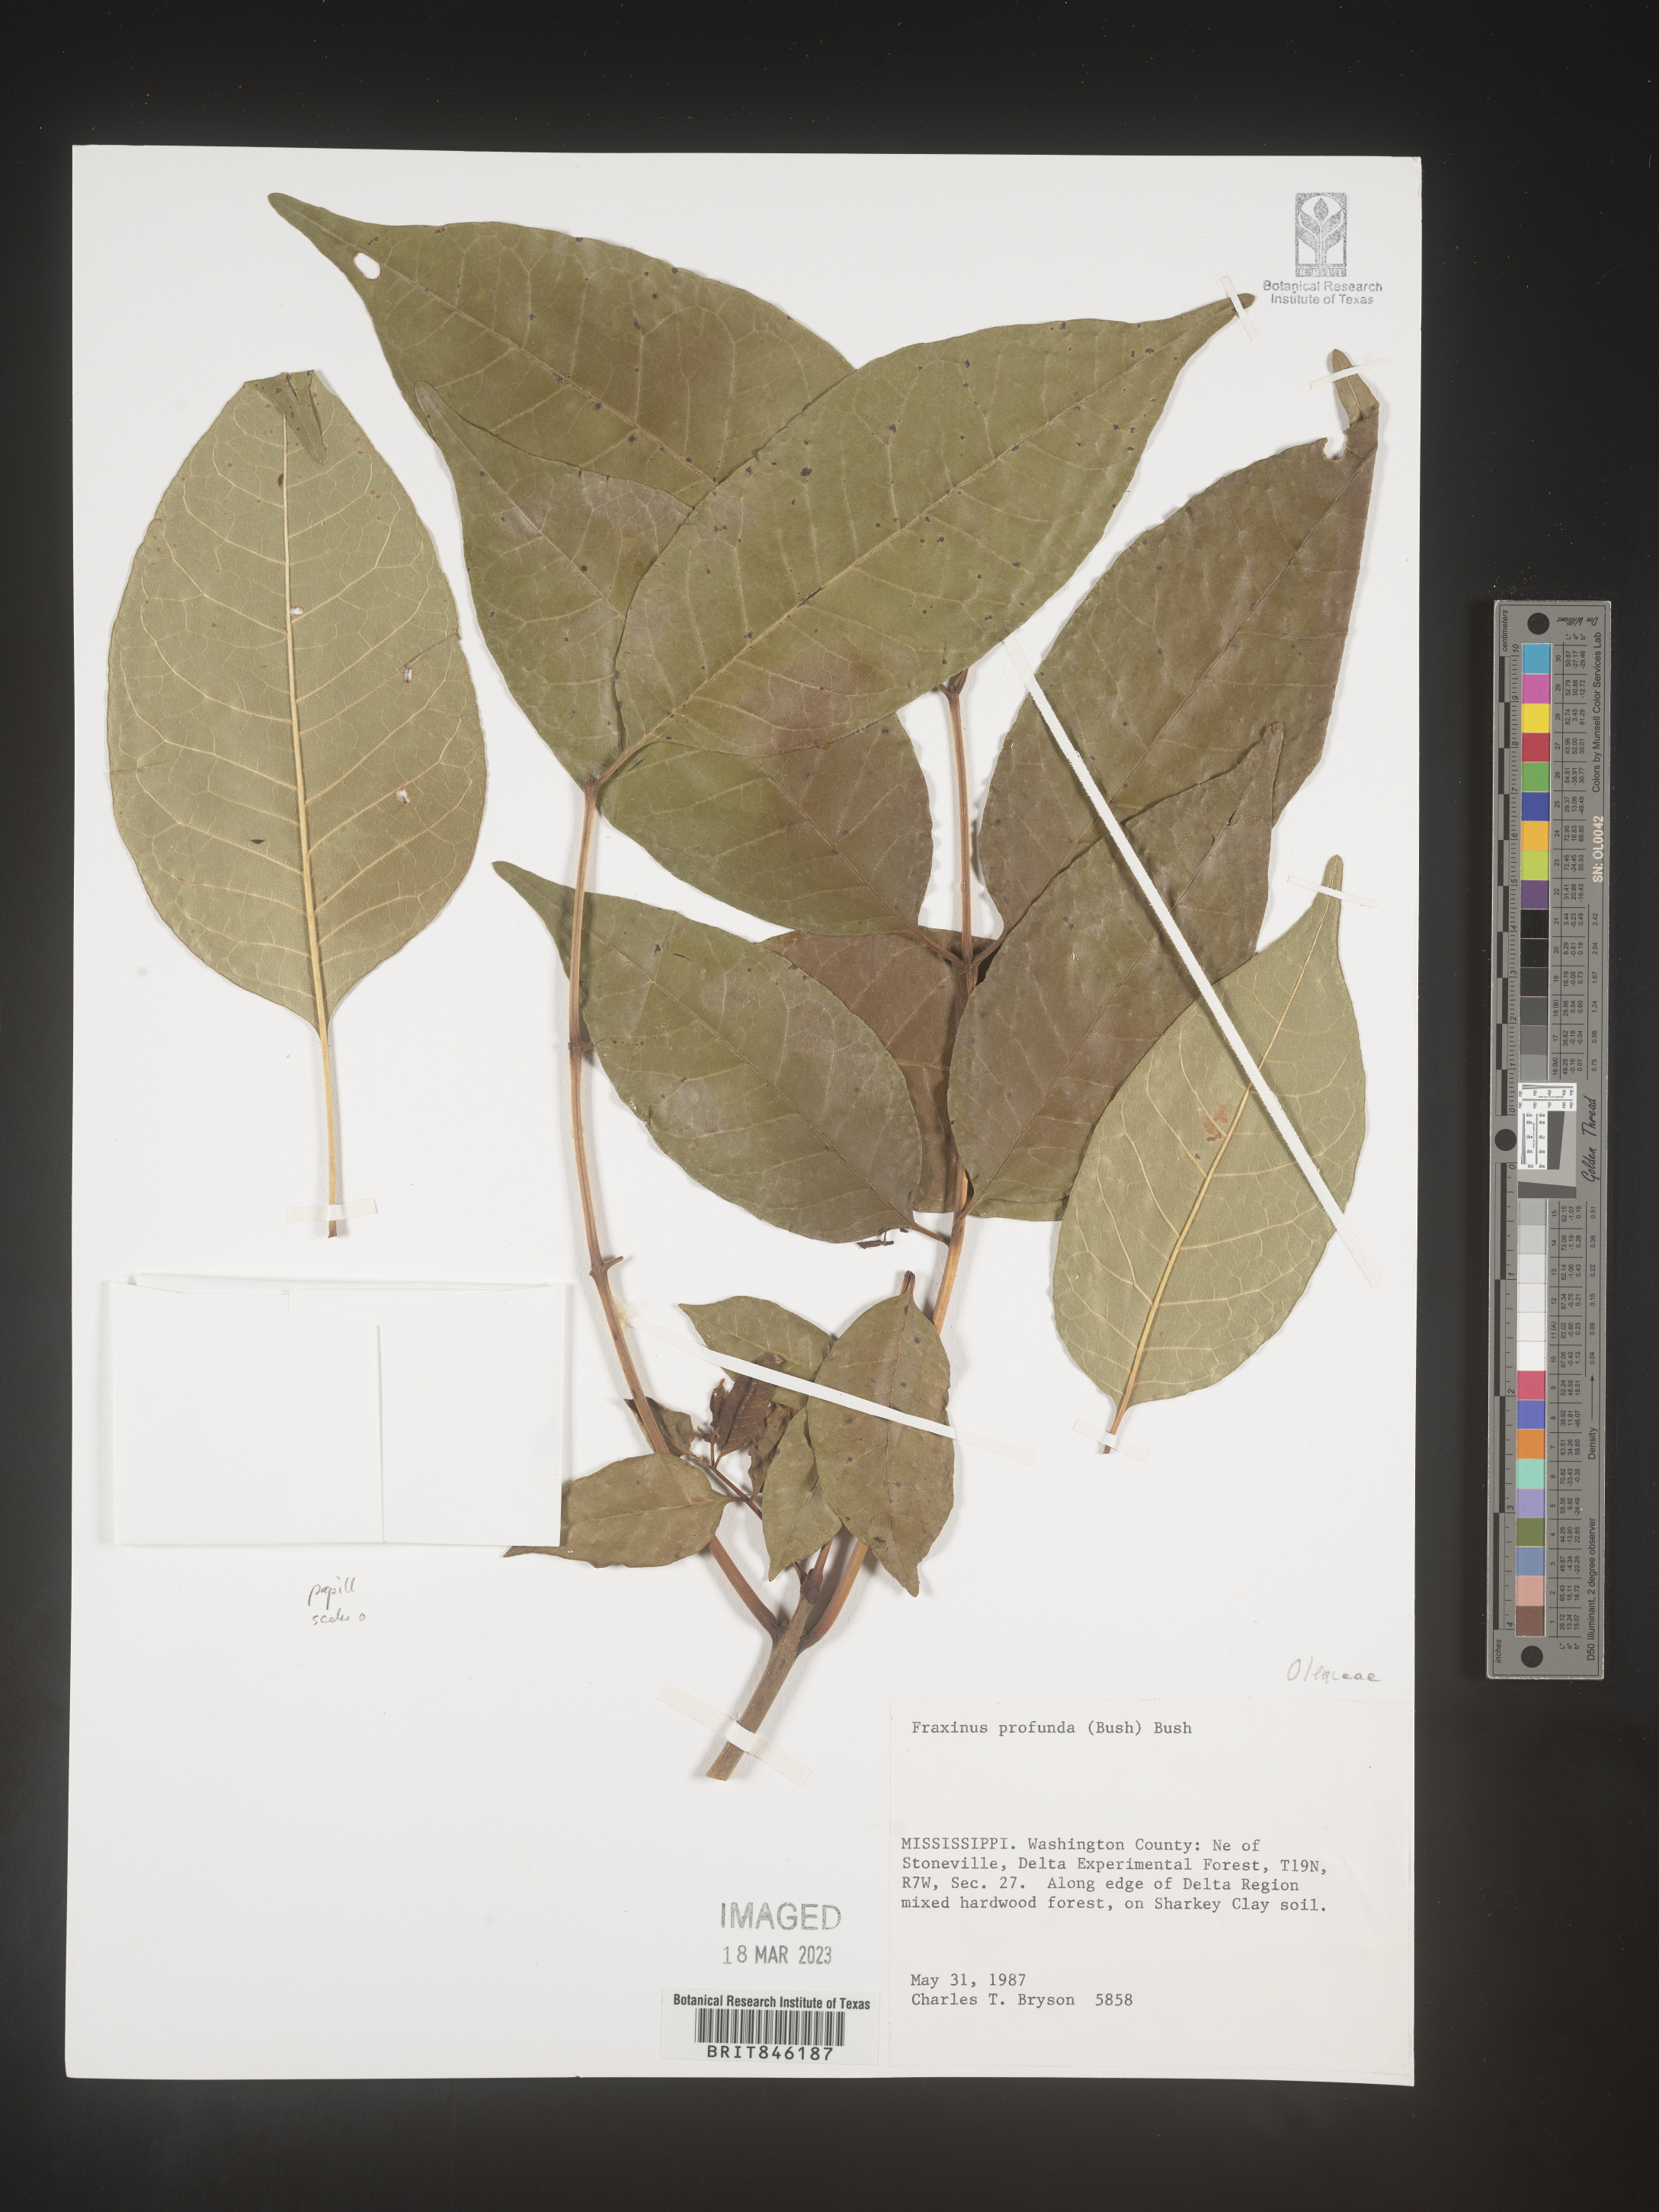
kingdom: Plantae
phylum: Tracheophyta
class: Magnoliopsida
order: Lamiales
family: Oleaceae
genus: Fraxinus
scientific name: Fraxinus profunda
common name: Pumpkin ash
